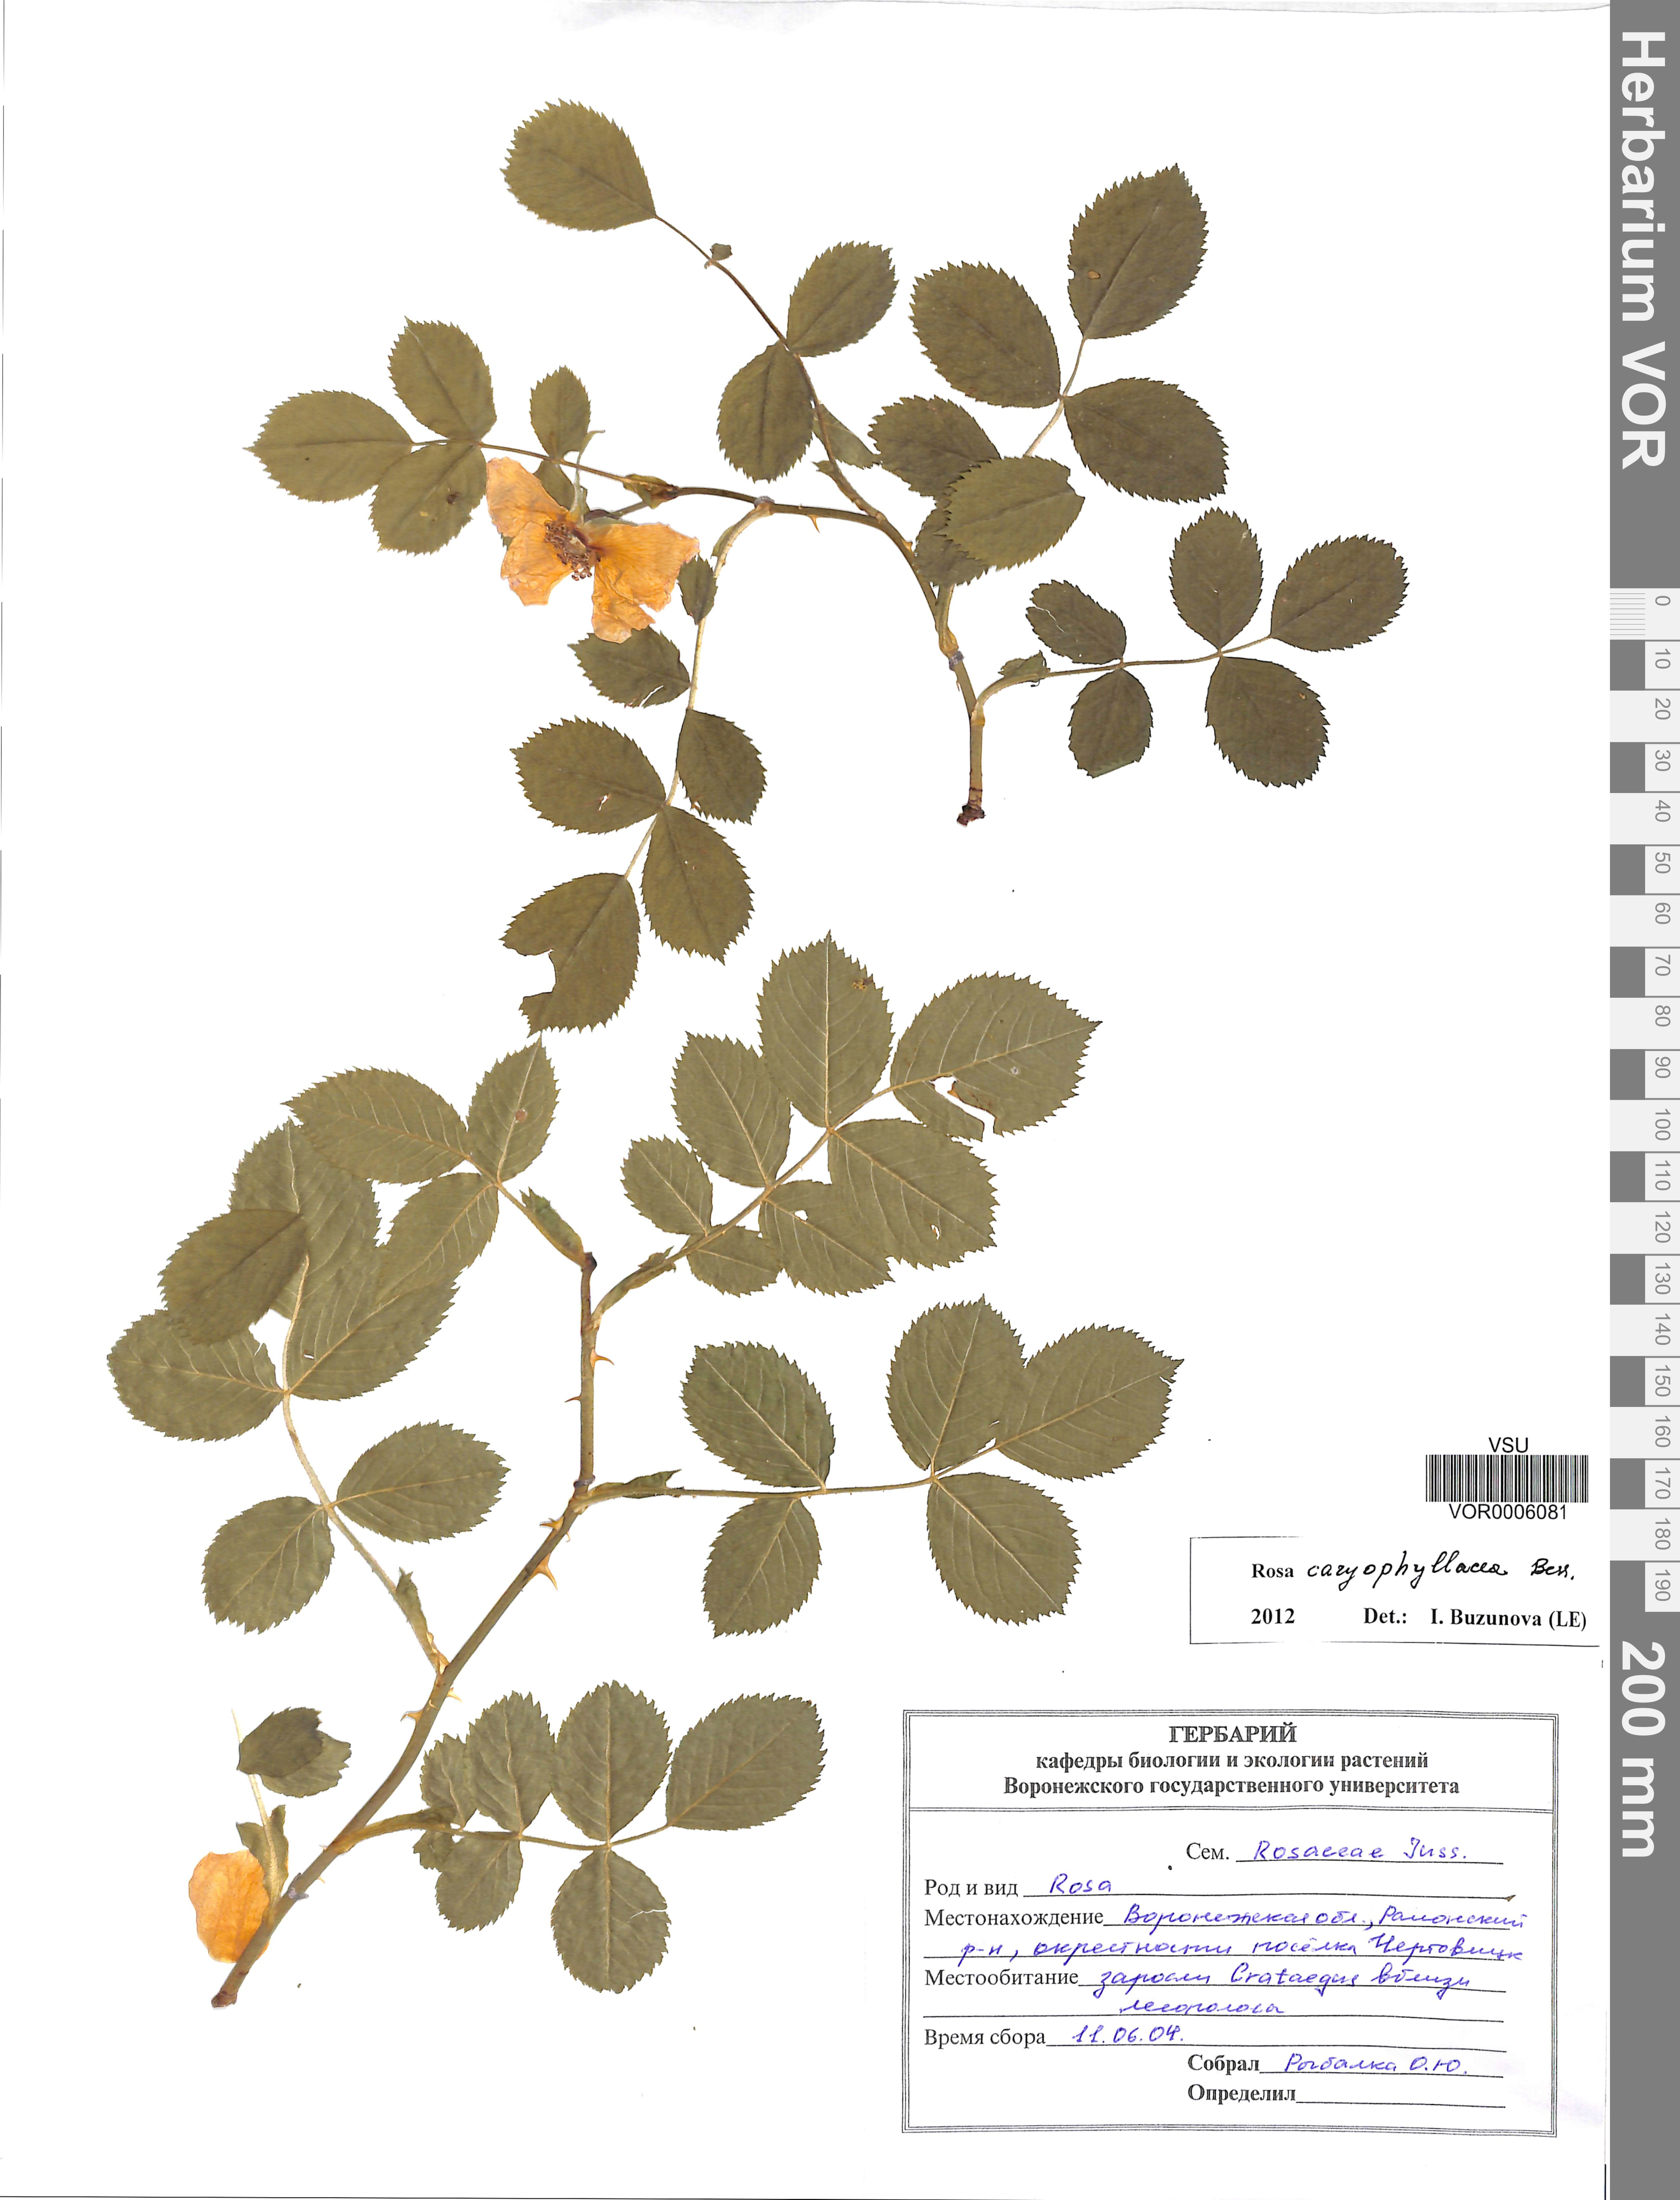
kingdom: Plantae
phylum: Tracheophyta
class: Magnoliopsida
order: Rosales
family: Rosaceae
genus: Rosa
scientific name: Rosa caryophyllacea
